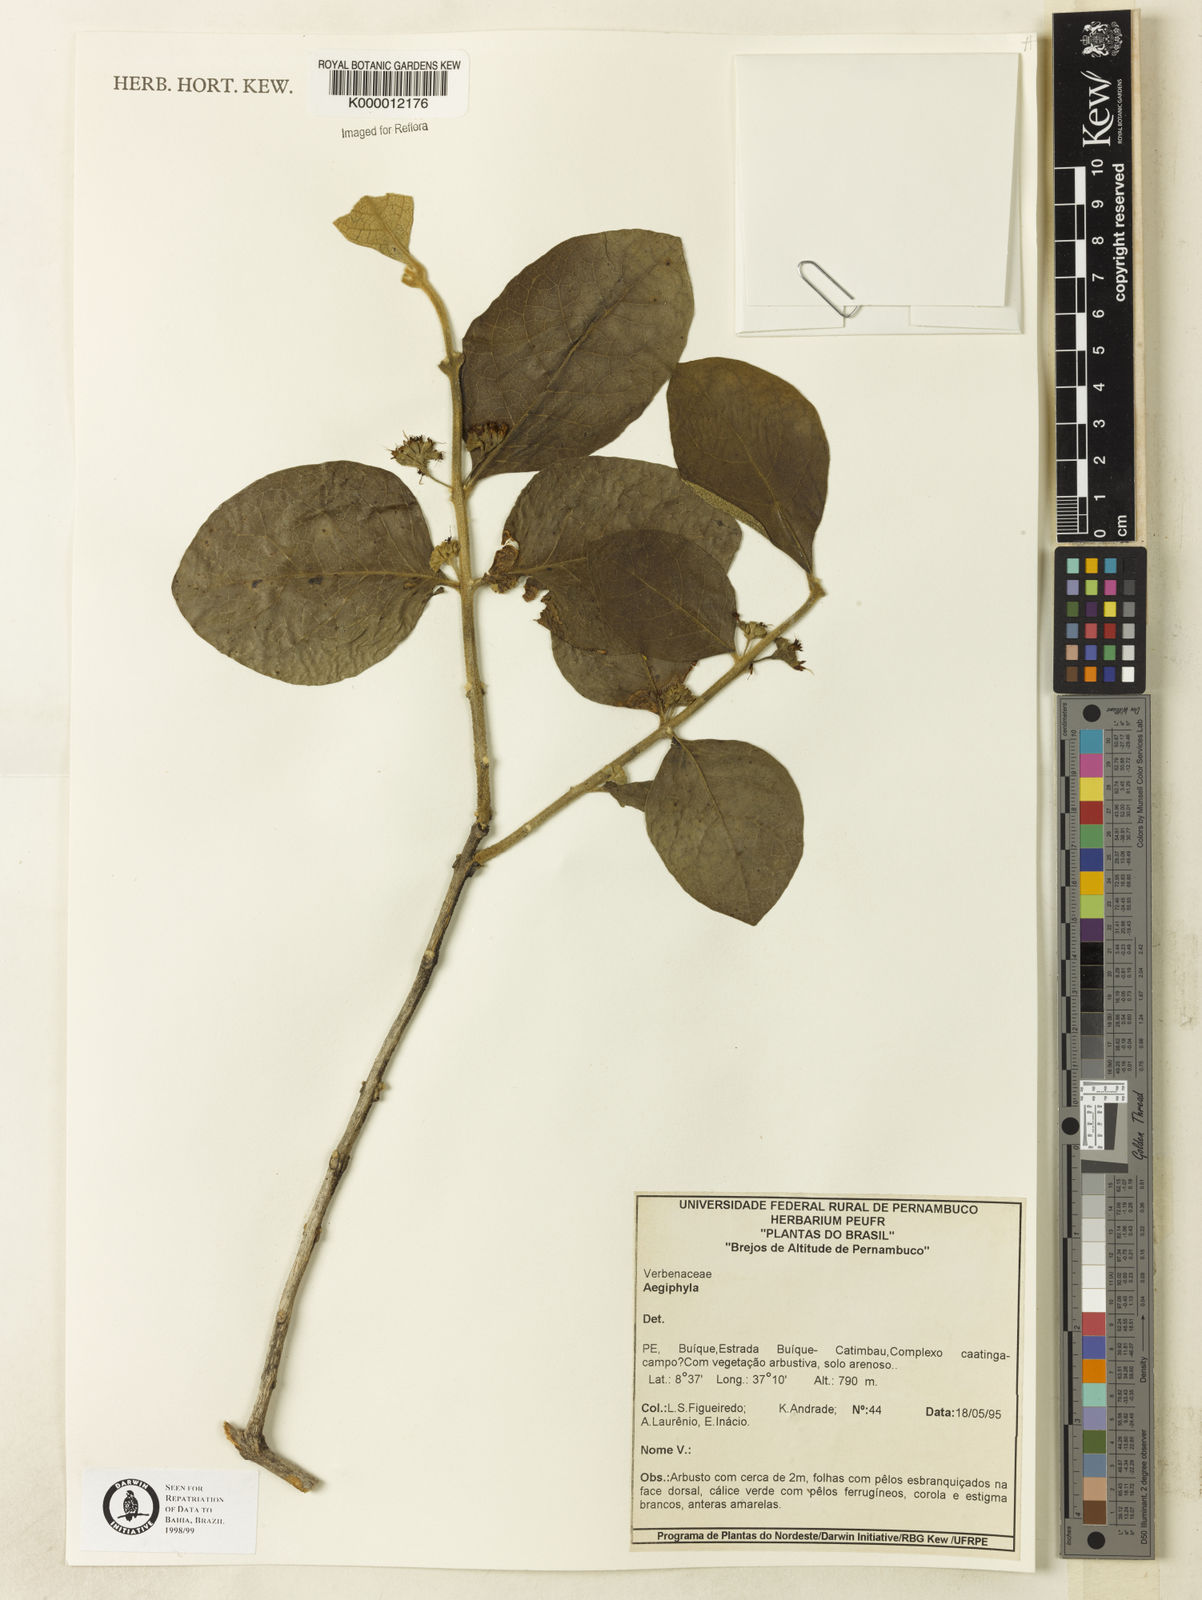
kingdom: Plantae
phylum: Tracheophyta
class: Magnoliopsida
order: Lamiales
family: Lamiaceae
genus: Aegiphila
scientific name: Aegiphila paraguariensis
